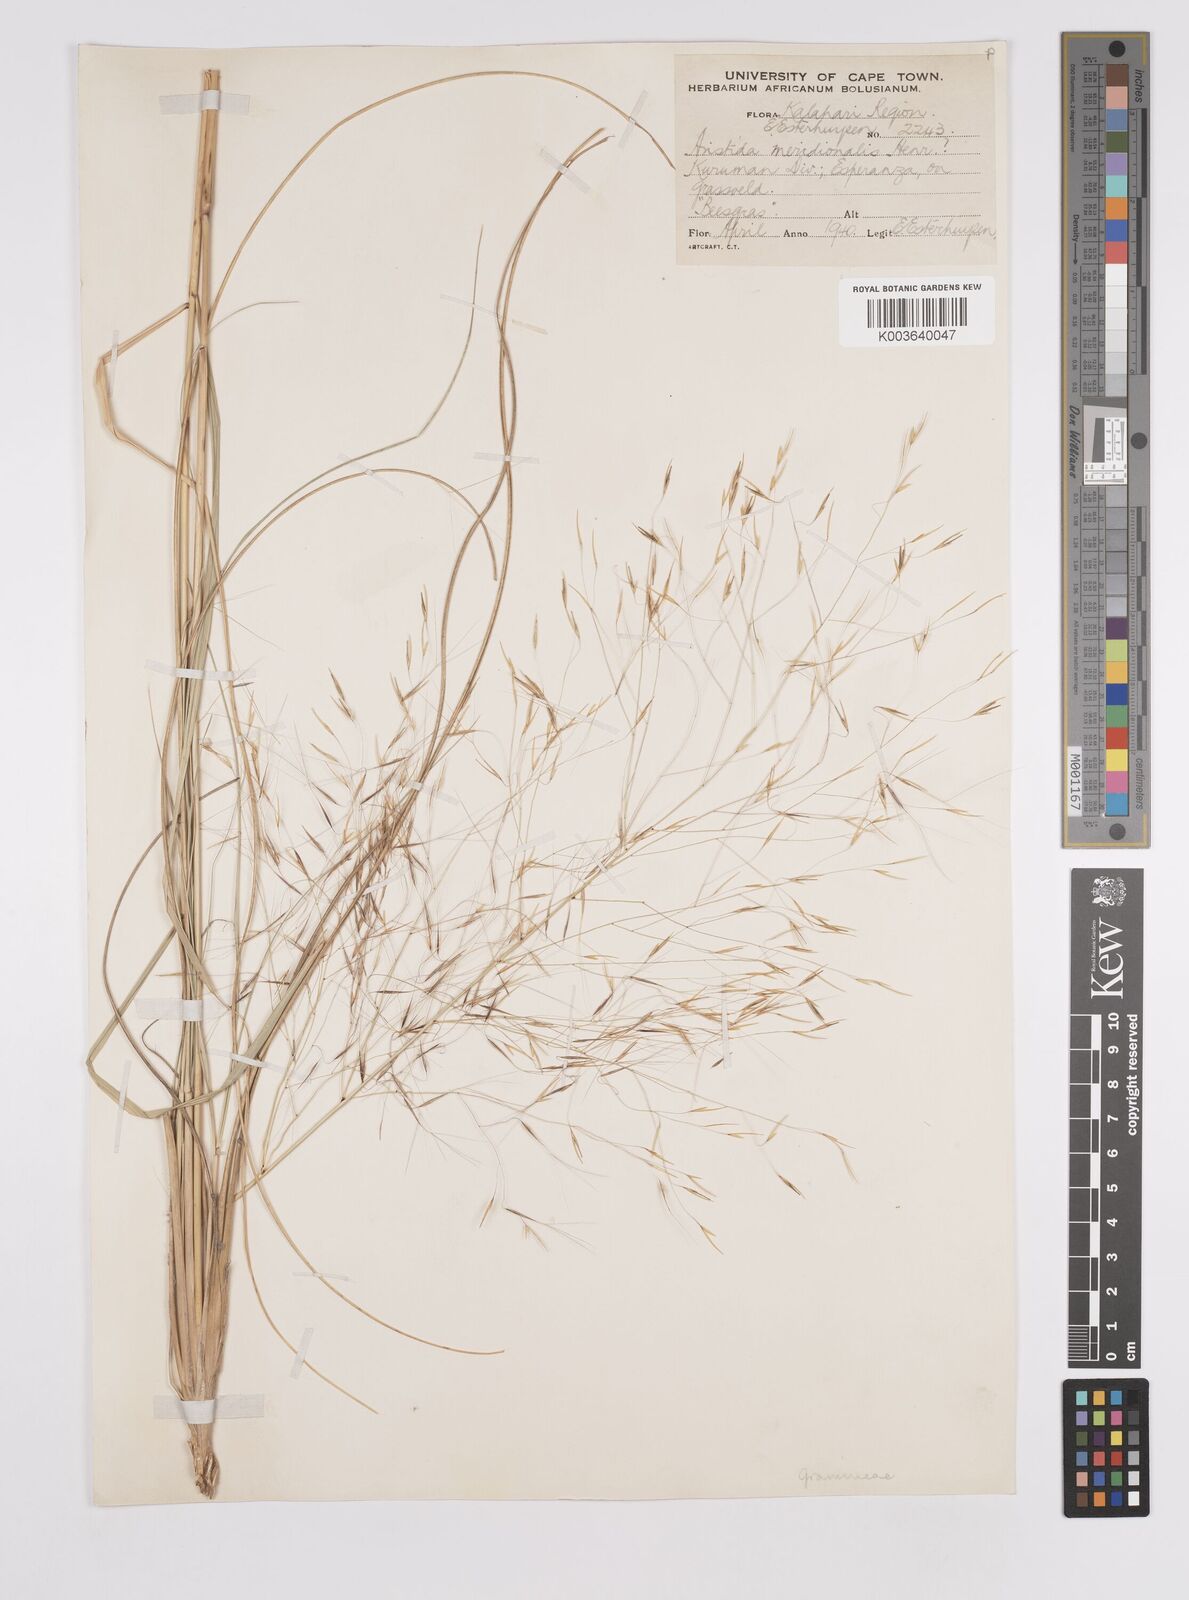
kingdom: Plantae
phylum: Tracheophyta
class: Liliopsida
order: Poales
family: Poaceae
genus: Aristida
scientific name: Aristida meridionalis
